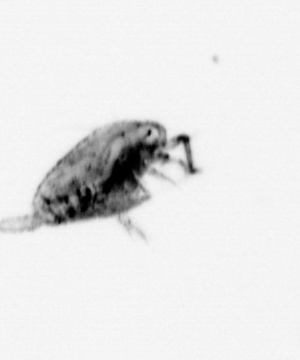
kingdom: Animalia
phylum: Arthropoda
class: Copepoda
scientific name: Copepoda
